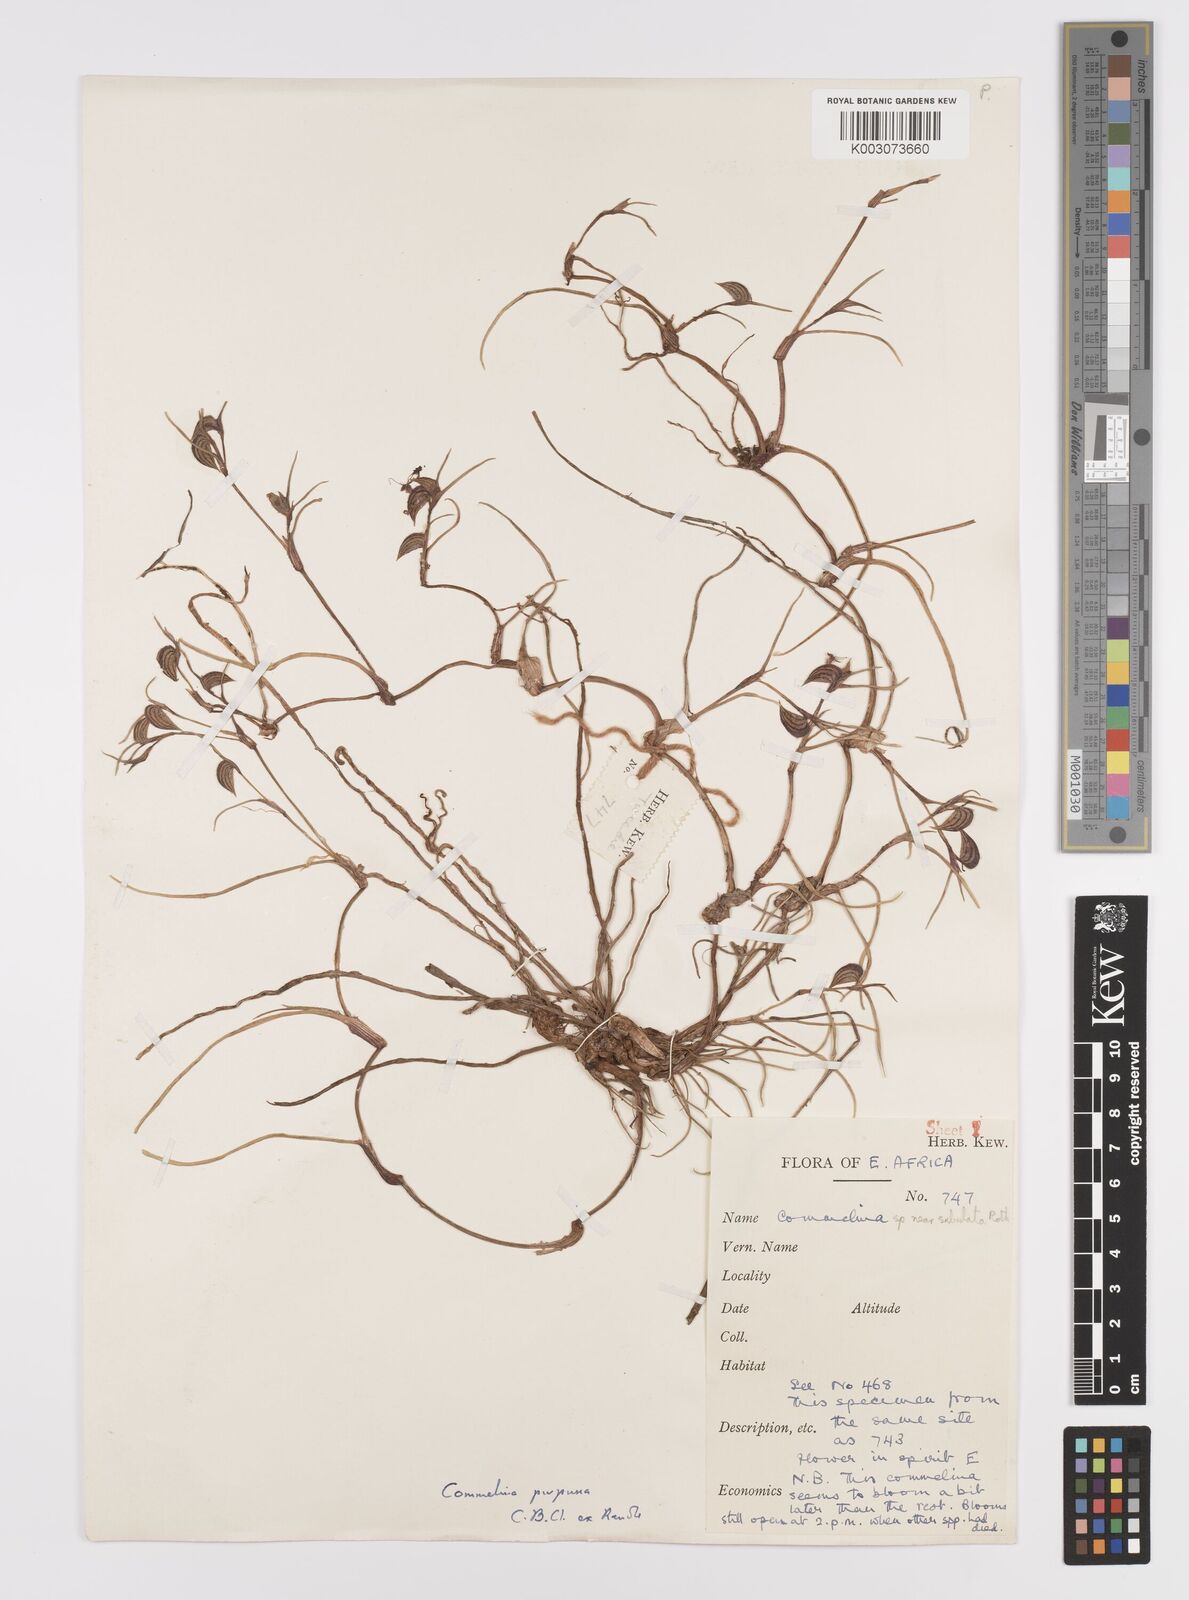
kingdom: Plantae
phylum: Tracheophyta
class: Liliopsida
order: Commelinales
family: Commelinaceae
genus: Commelina
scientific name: Commelina purpurea
